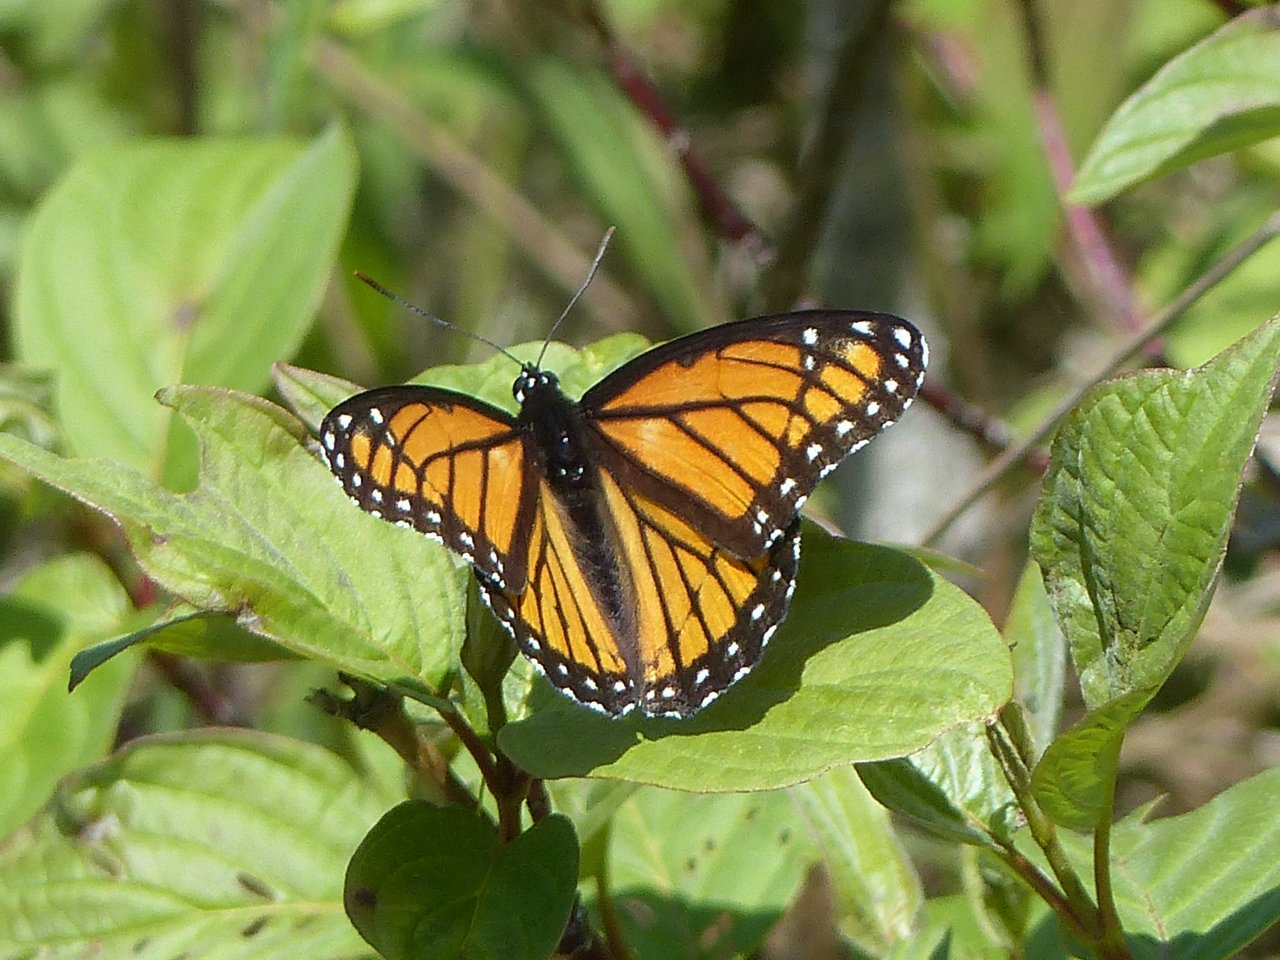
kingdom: Animalia
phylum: Arthropoda
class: Insecta
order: Lepidoptera
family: Nymphalidae
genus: Limenitis
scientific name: Limenitis archippus
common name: Viceroy
